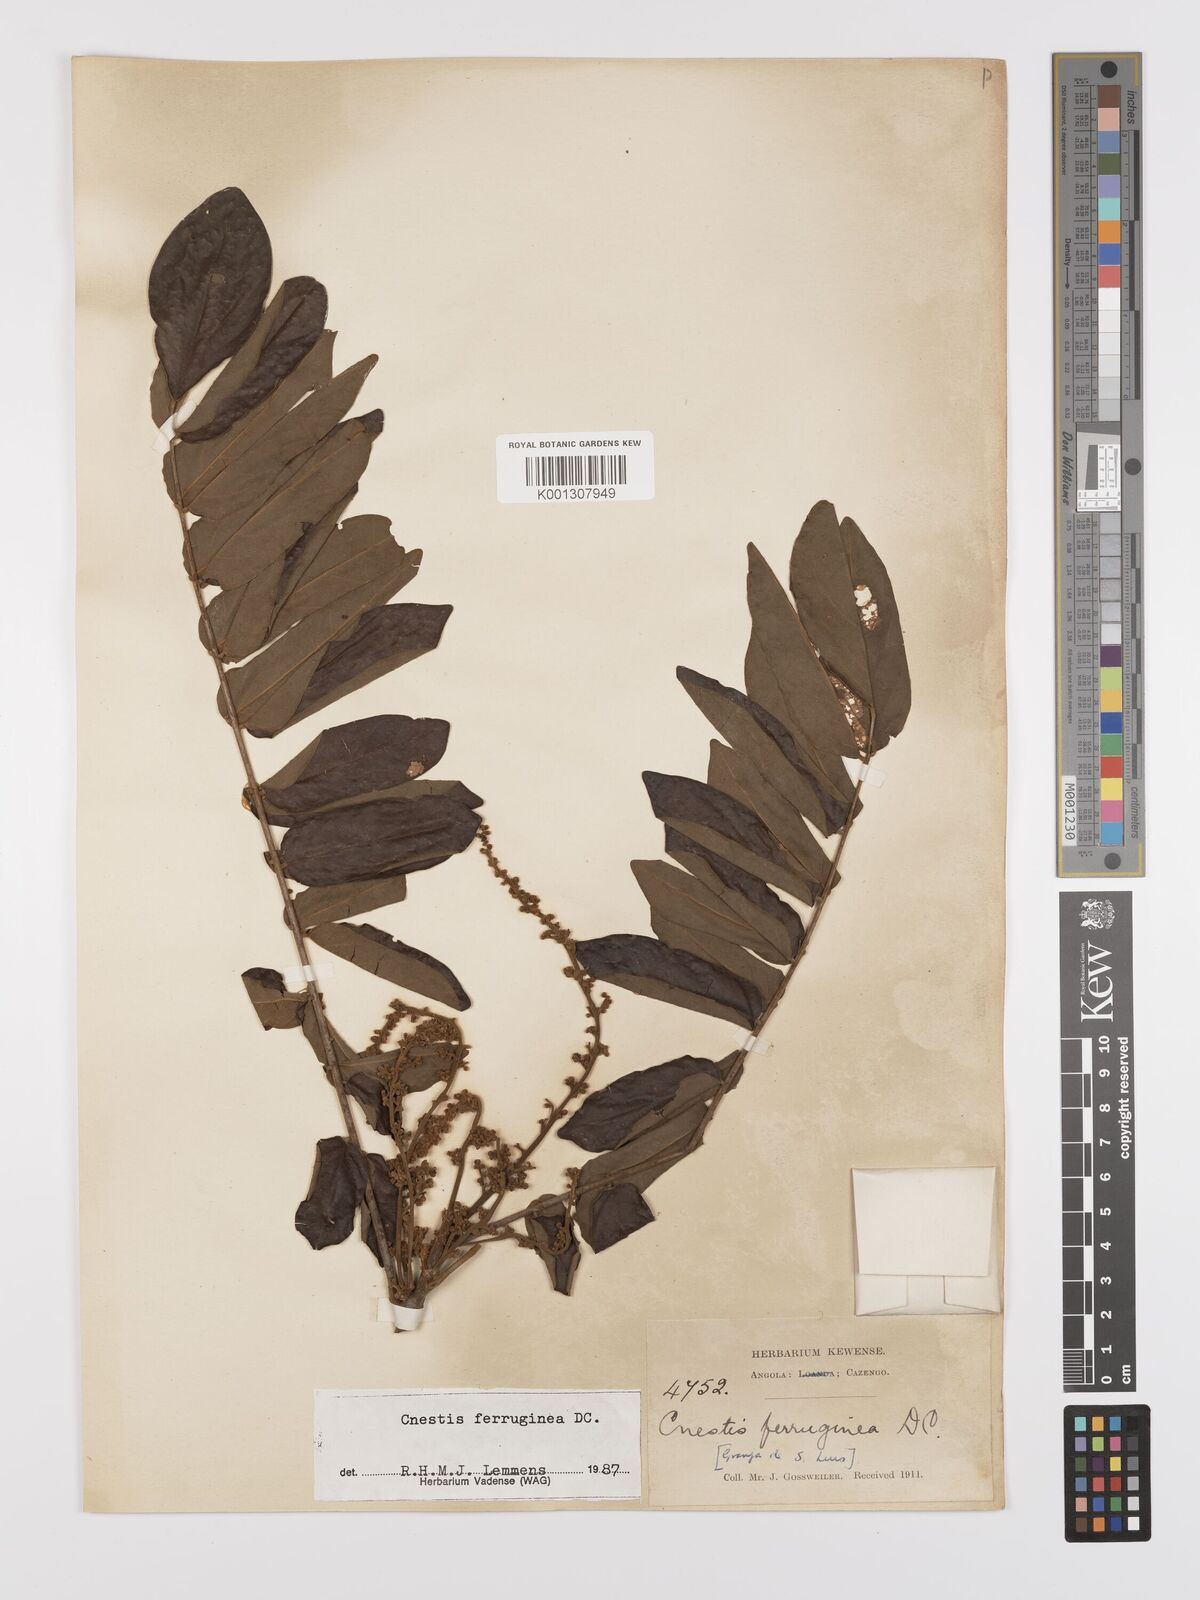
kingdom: Plantae
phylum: Tracheophyta
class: Magnoliopsida
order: Oxalidales
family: Connaraceae
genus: Cnestis
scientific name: Cnestis ferruginea
